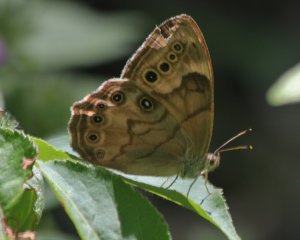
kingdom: Animalia
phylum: Arthropoda
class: Insecta
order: Lepidoptera
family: Nymphalidae
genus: Lethe
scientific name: Lethe anthedon
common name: Northern Pearly-Eye
